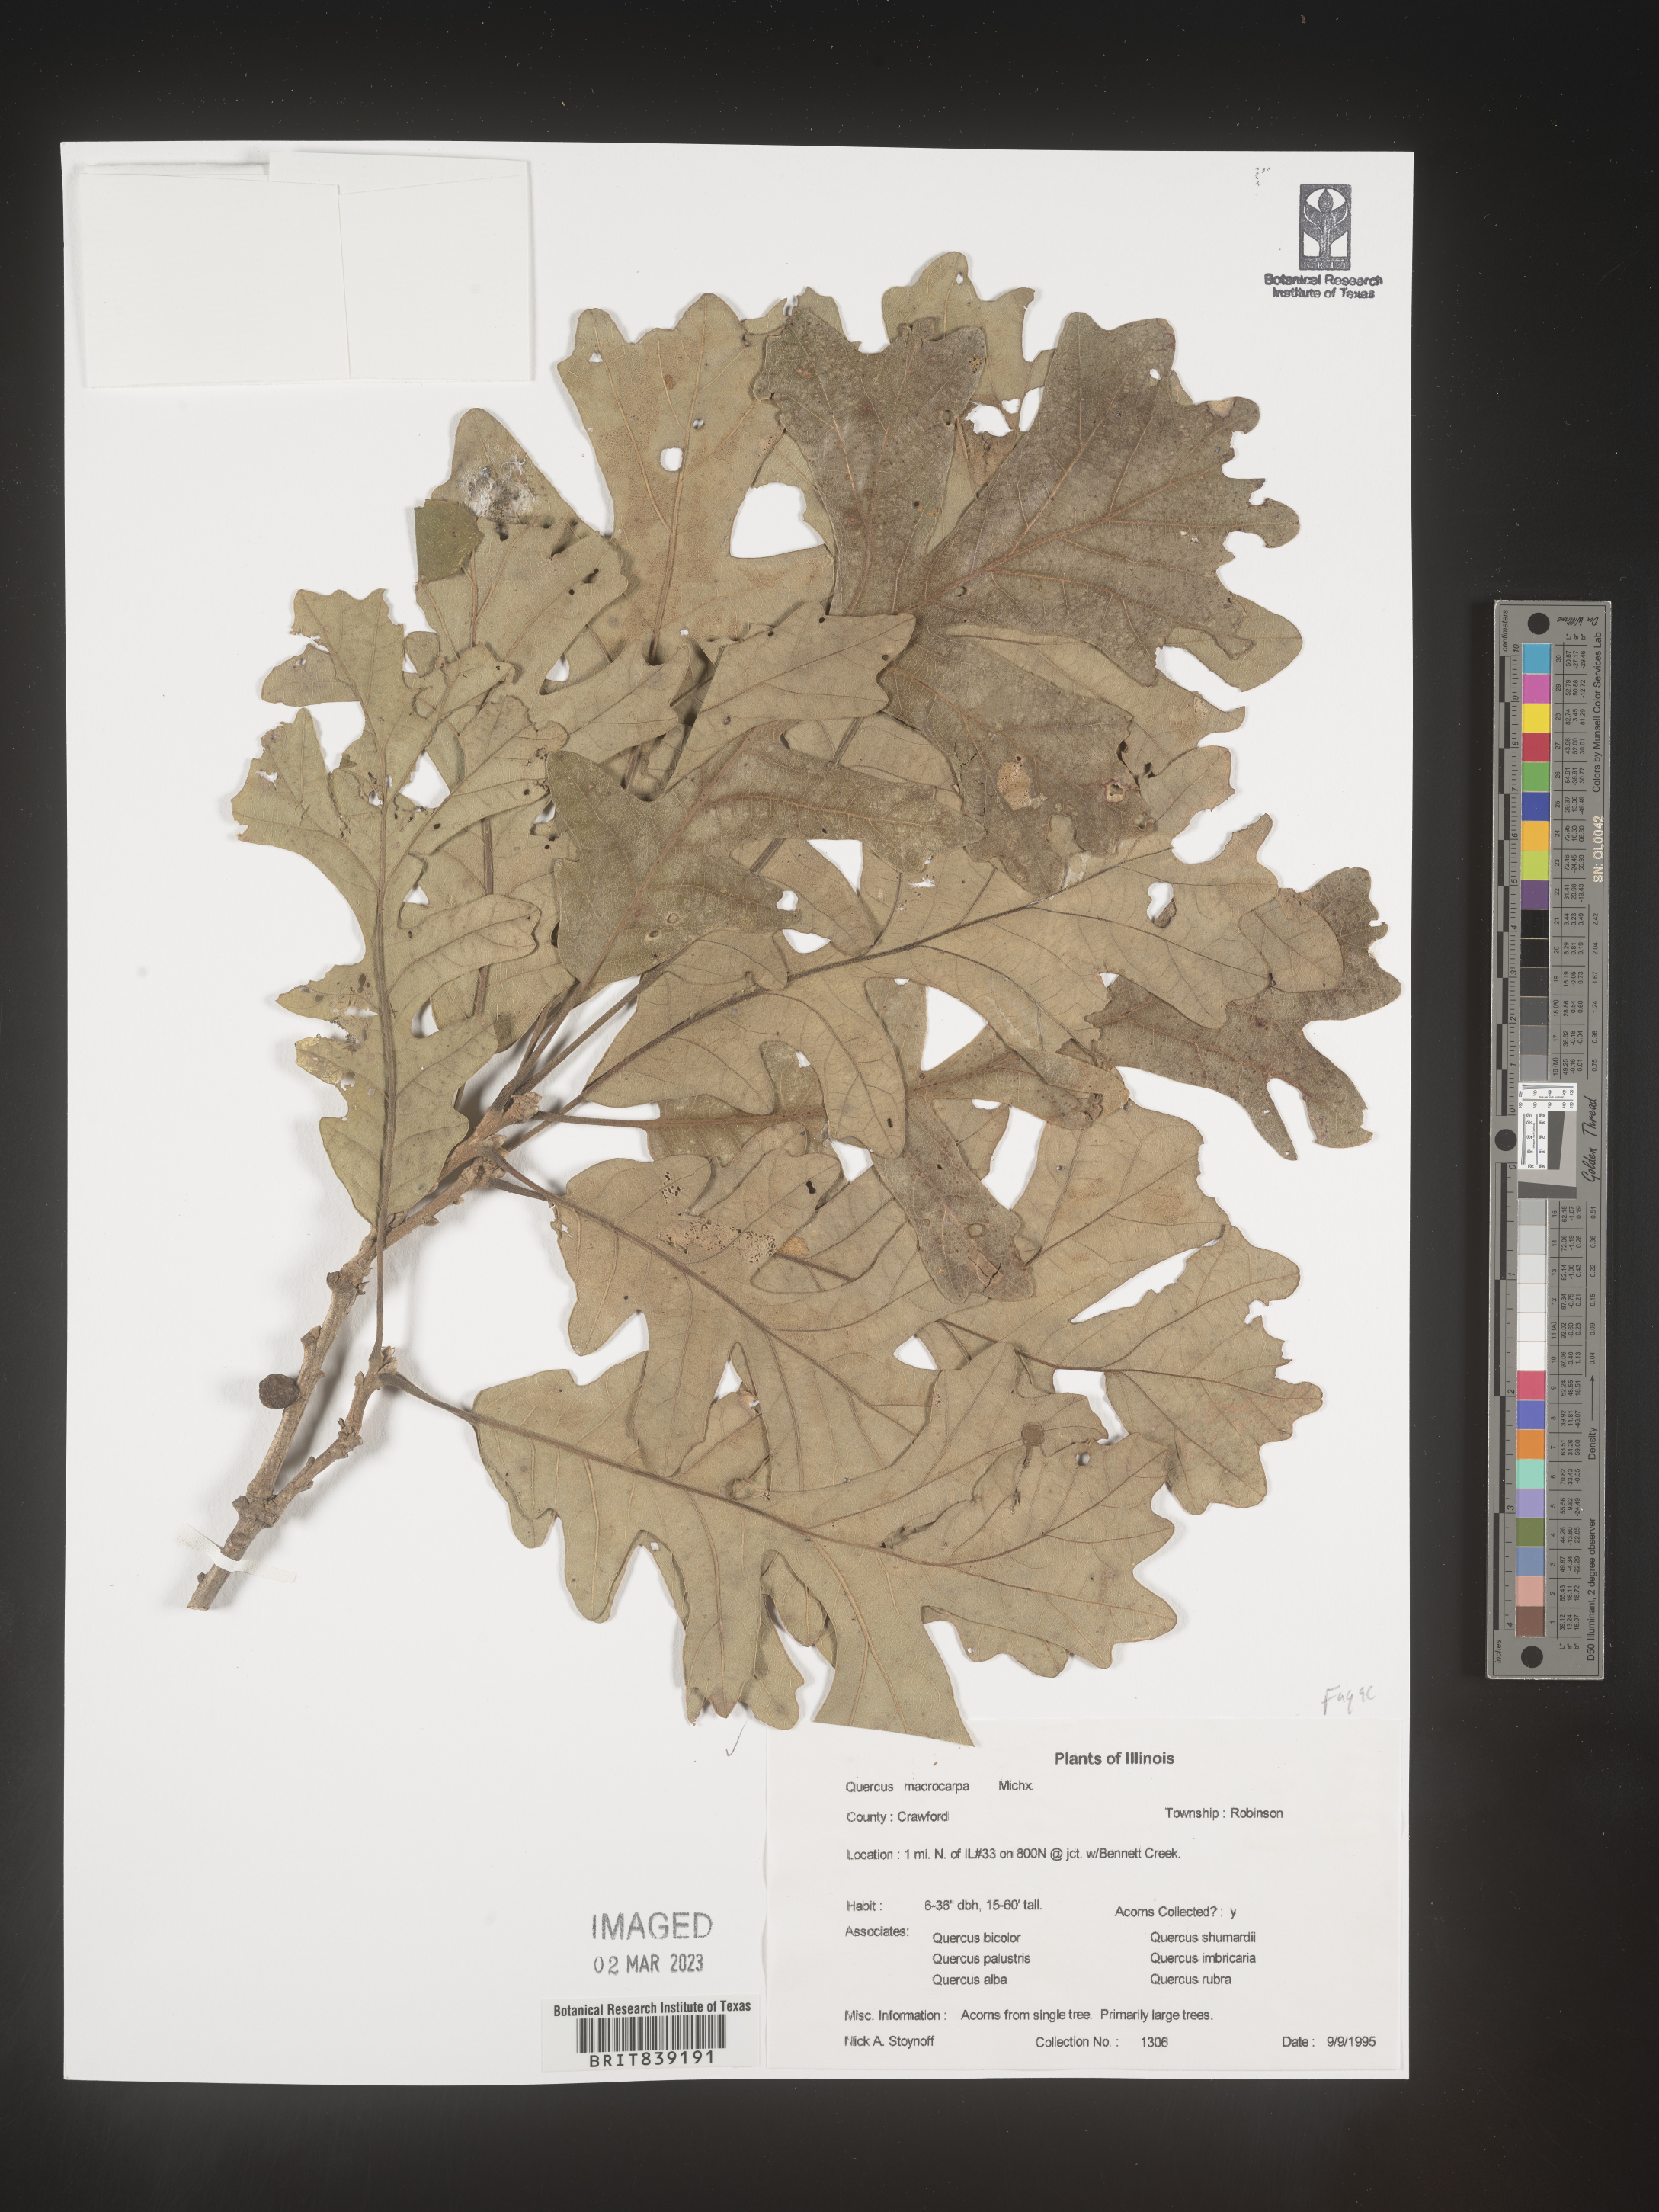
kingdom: Plantae
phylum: Tracheophyta
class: Magnoliopsida
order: Fagales
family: Fagaceae
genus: Quercus
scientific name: Quercus macrocarpa
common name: Bur oak
